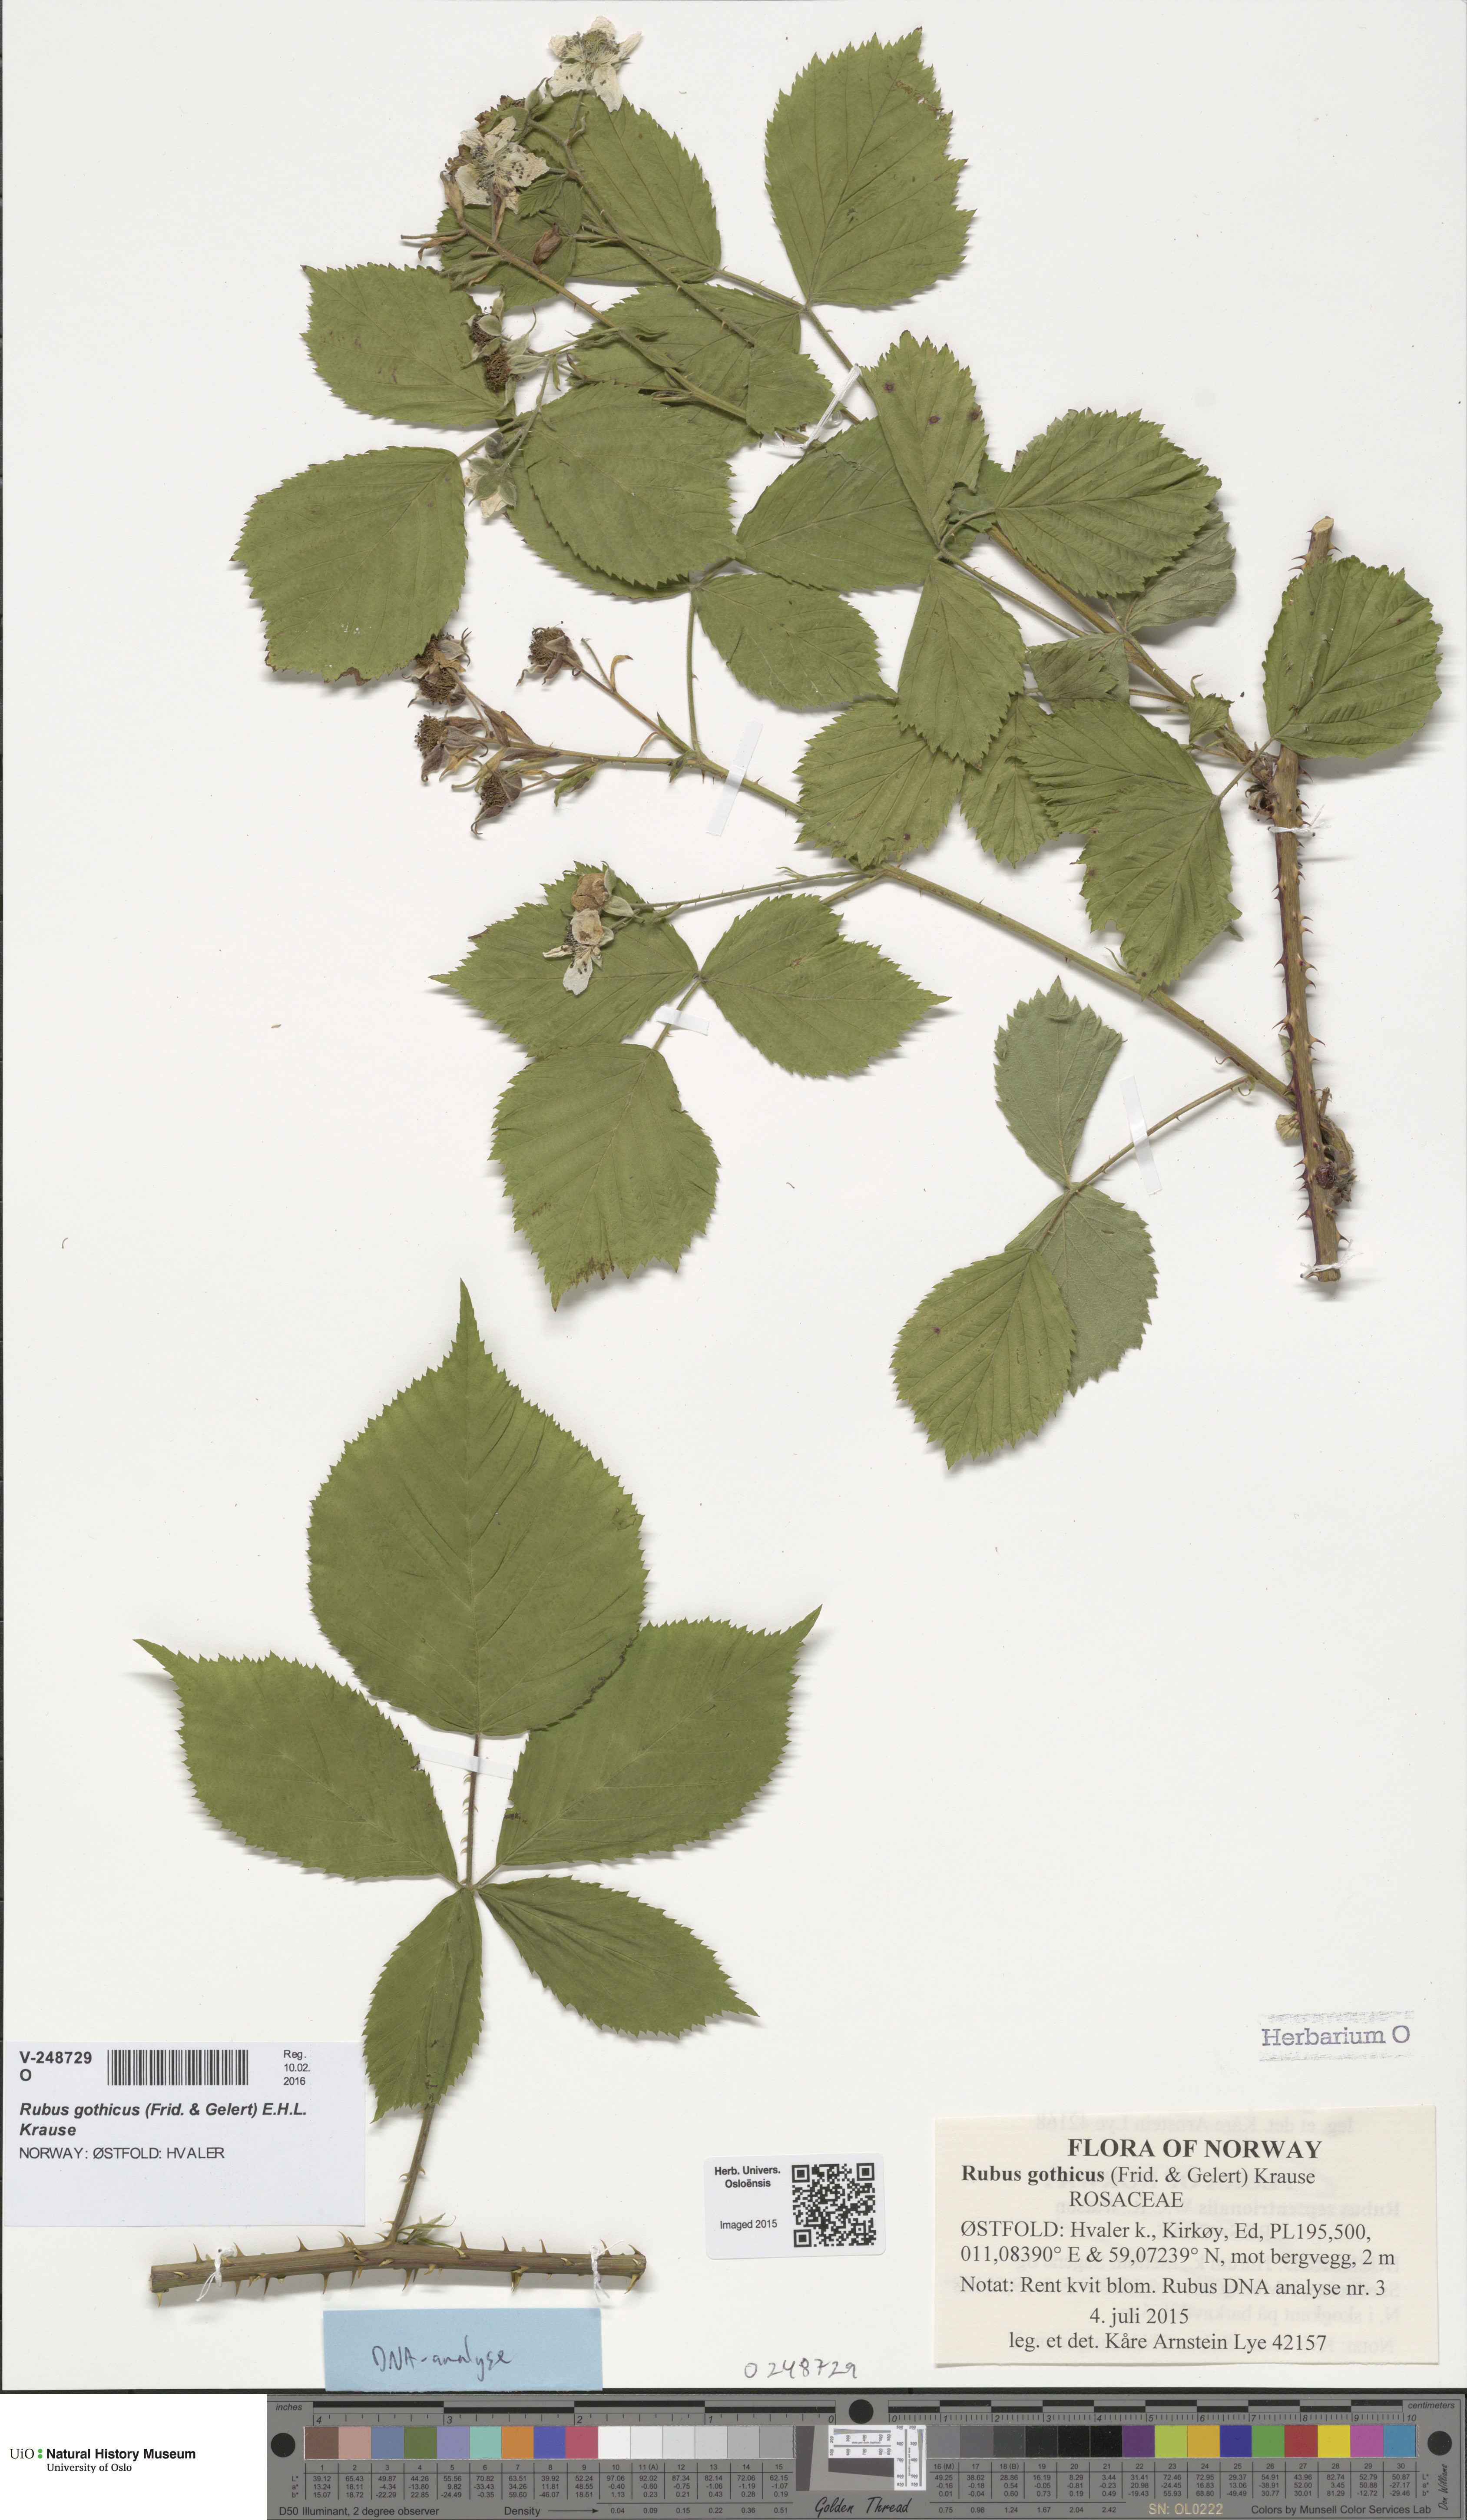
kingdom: Plantae
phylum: Tracheophyta
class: Magnoliopsida
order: Rosales
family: Rosaceae
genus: Rubus
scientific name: Rubus gothicus
